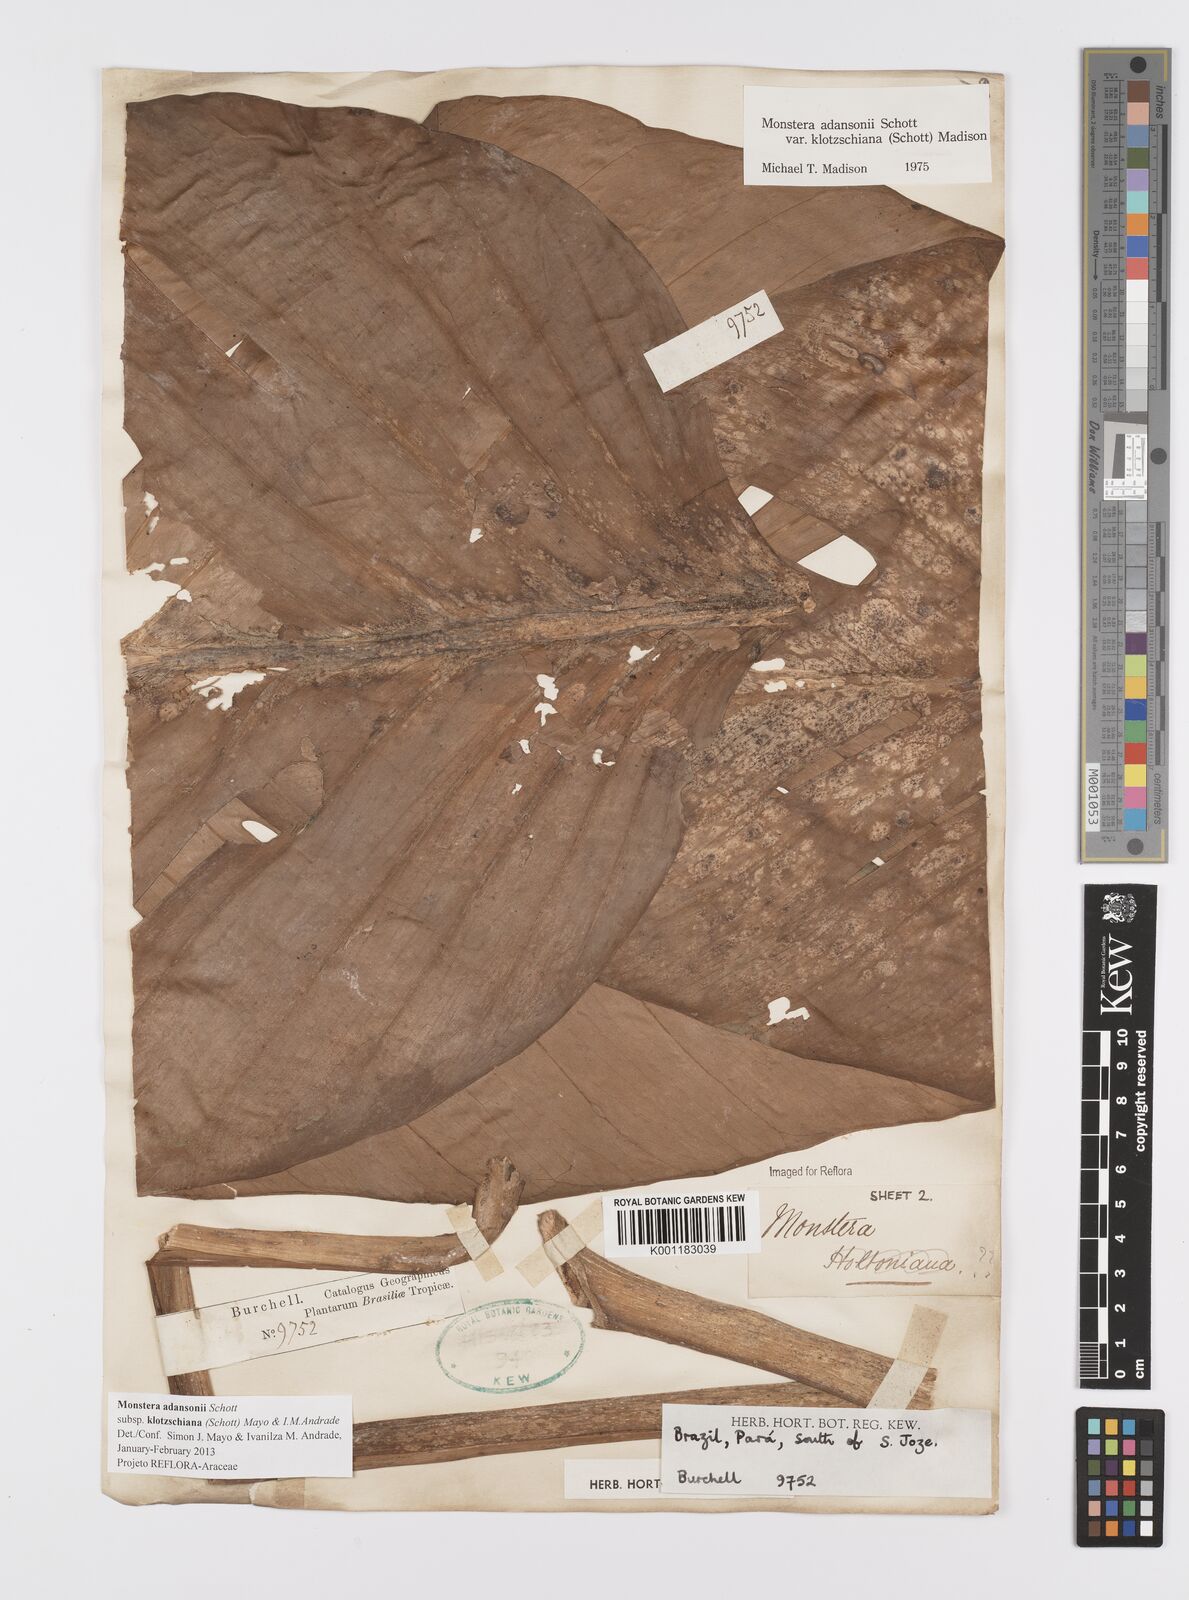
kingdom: Plantae
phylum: Tracheophyta
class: Liliopsida
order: Alismatales
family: Araceae
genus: Monstera
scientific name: Monstera adansonii
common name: Tarovine
